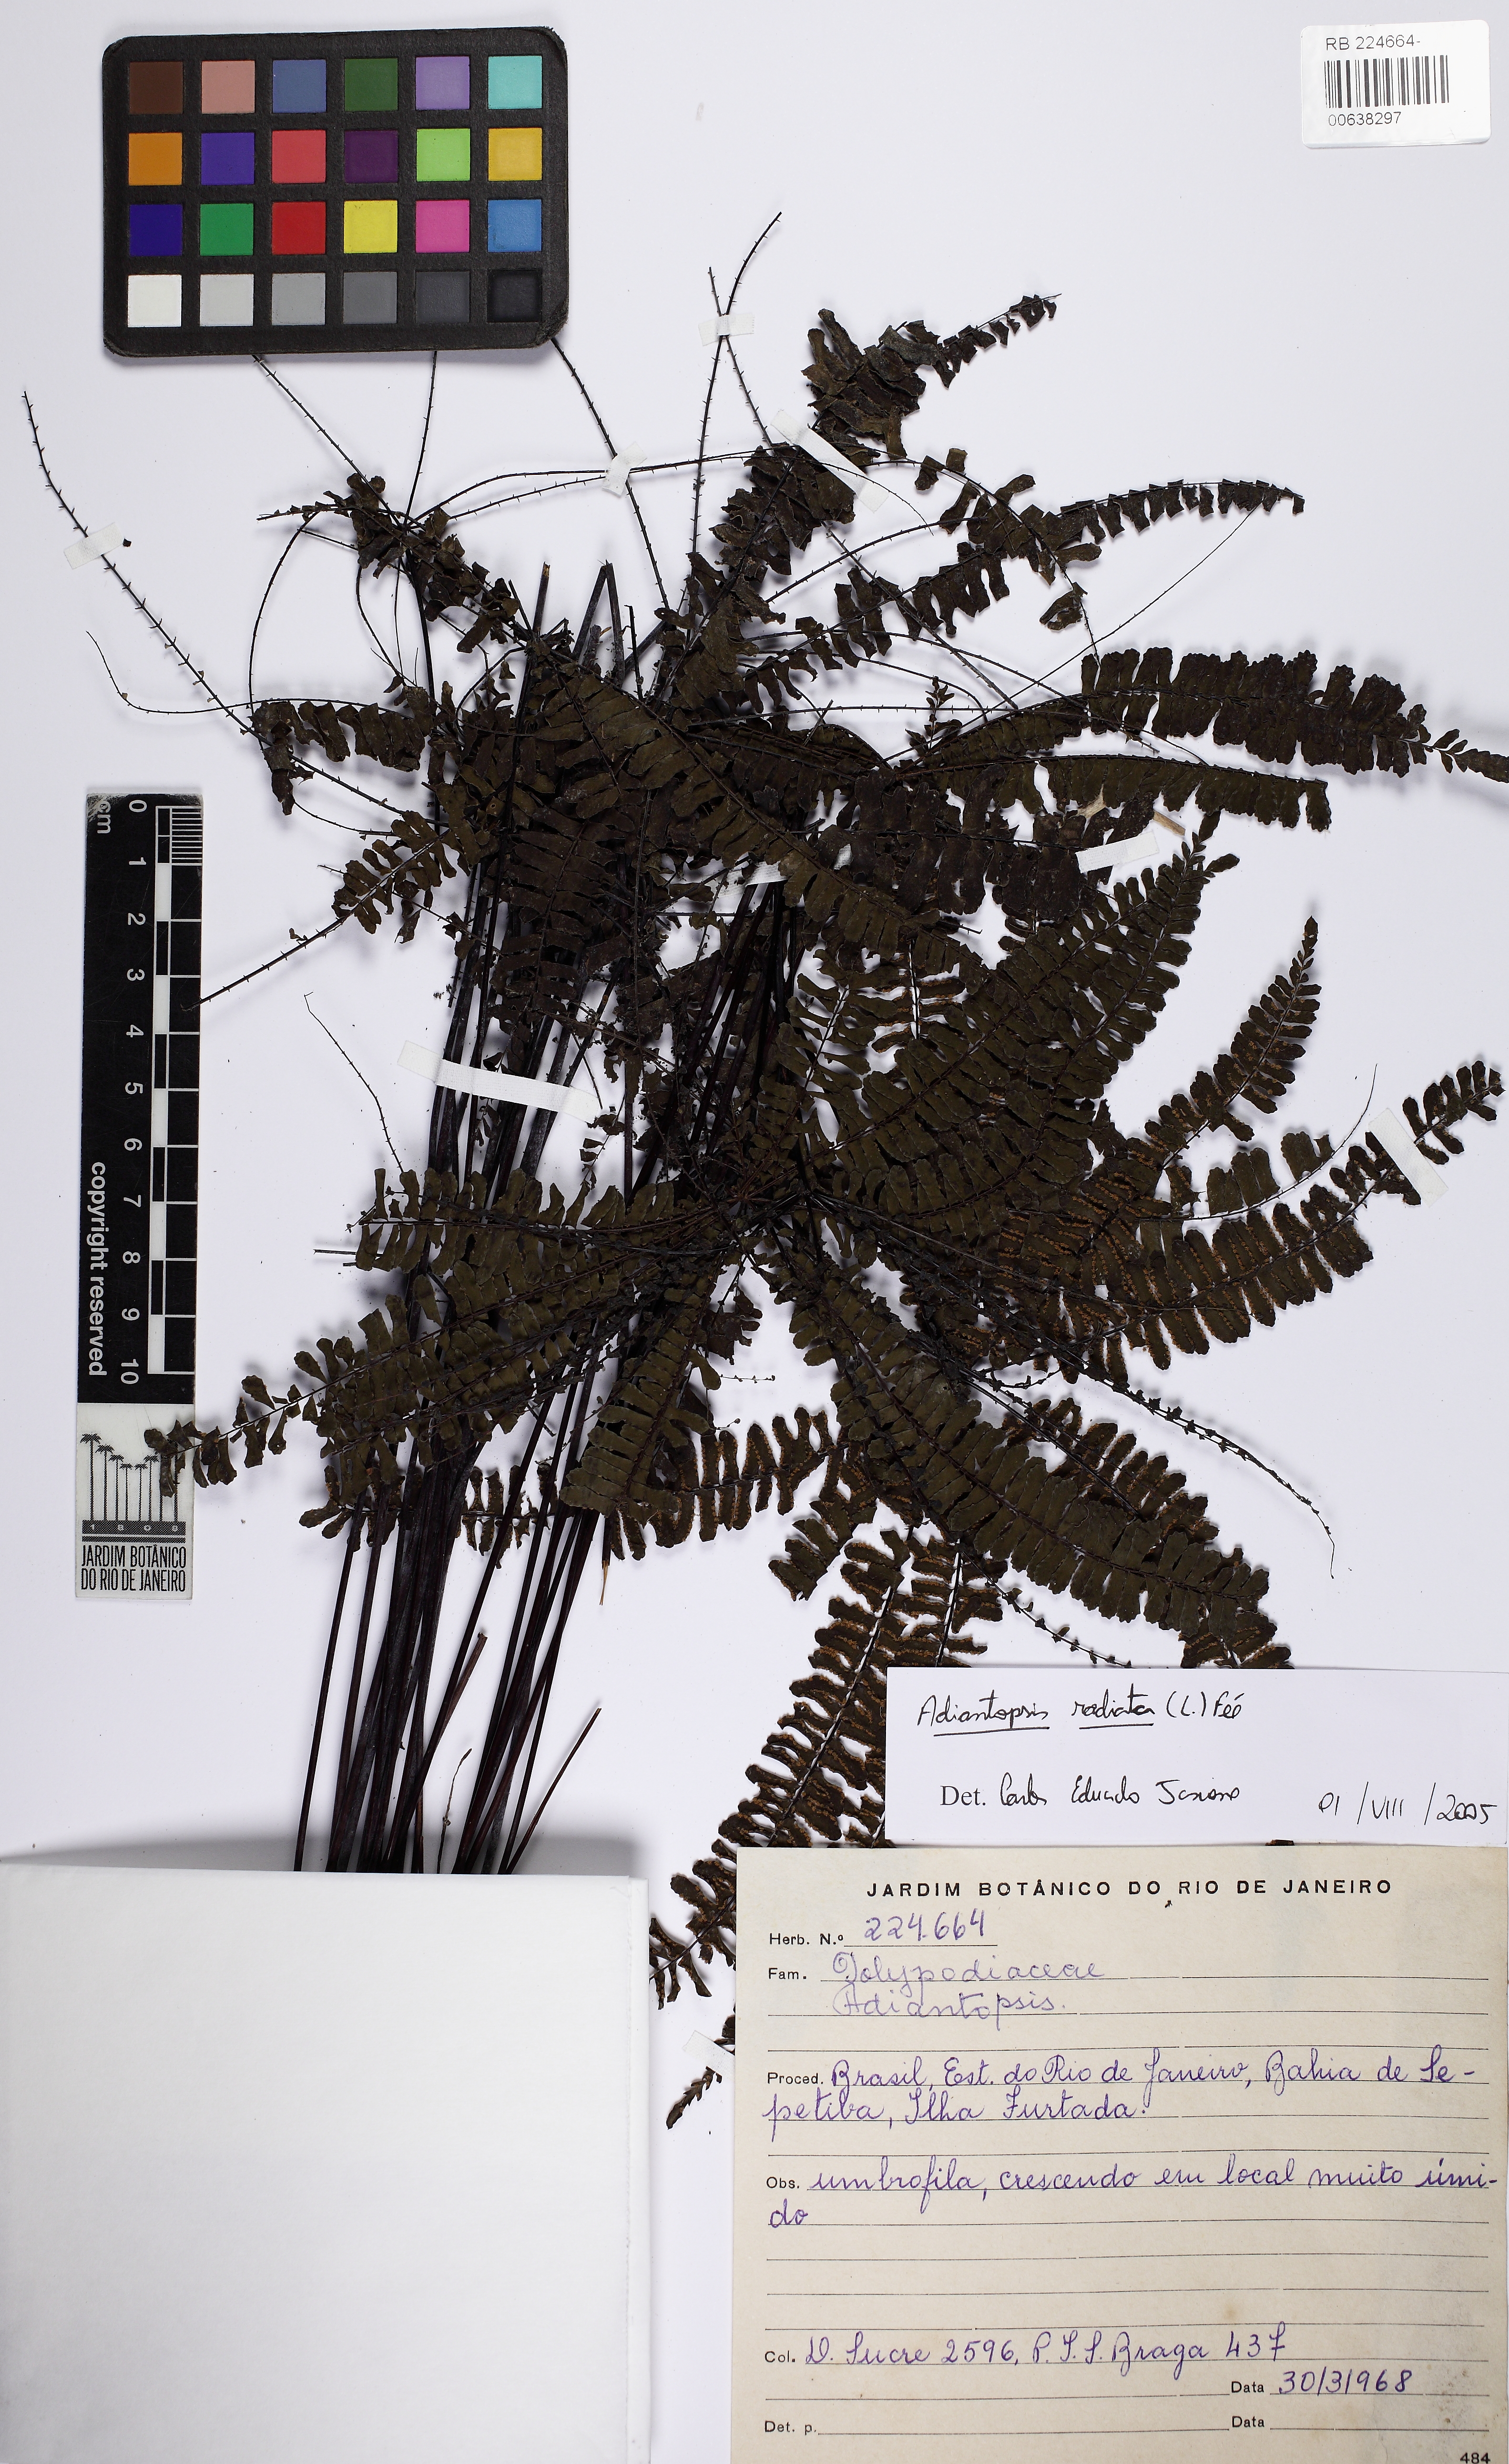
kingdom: Plantae
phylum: Tracheophyta
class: Polypodiopsida
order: Polypodiales
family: Pteridaceae
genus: Adiantopsis
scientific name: Adiantopsis radiata
